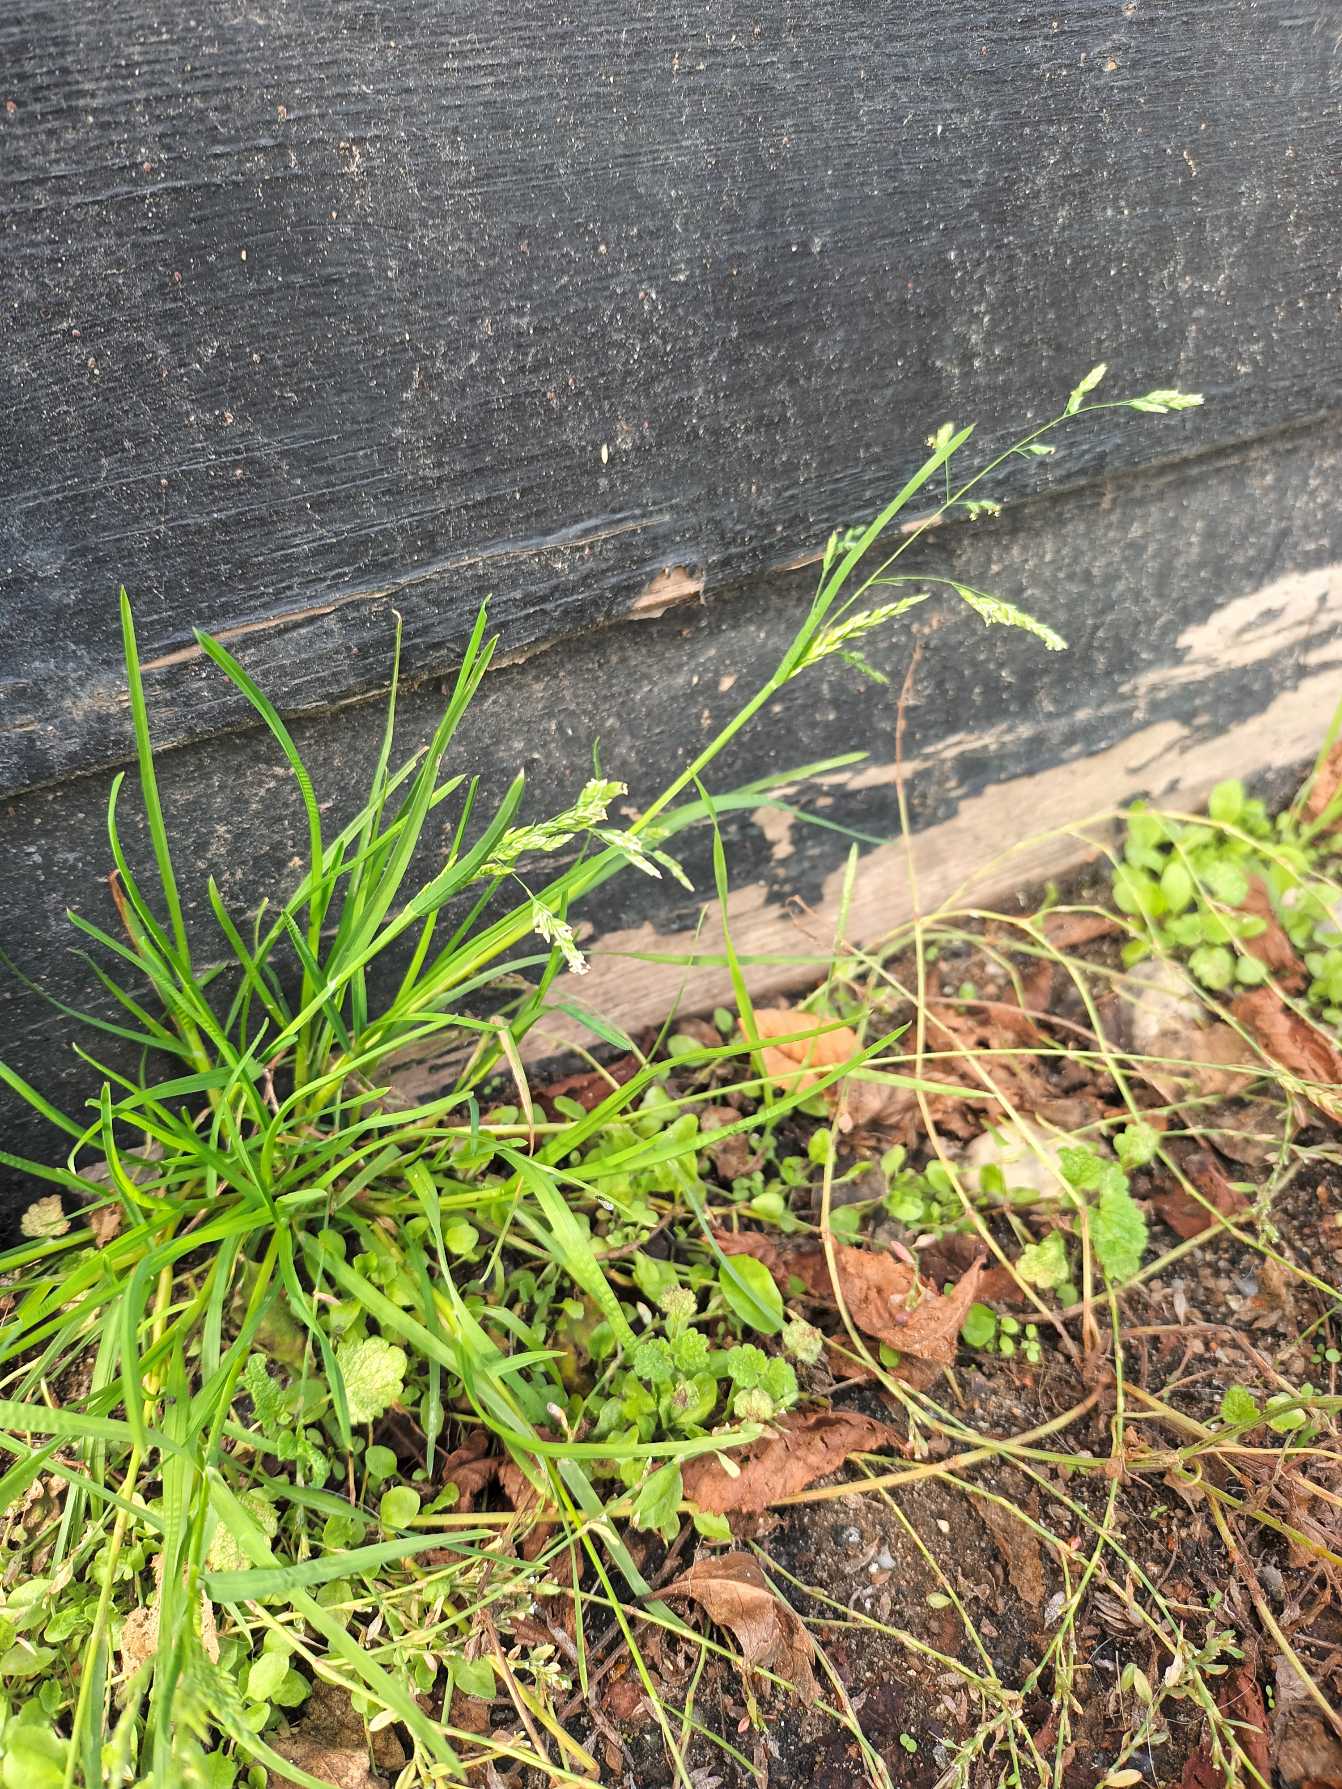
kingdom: Plantae
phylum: Tracheophyta
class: Liliopsida
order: Poales
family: Poaceae
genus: Poa
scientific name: Poa annua
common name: Enårig rapgræs
